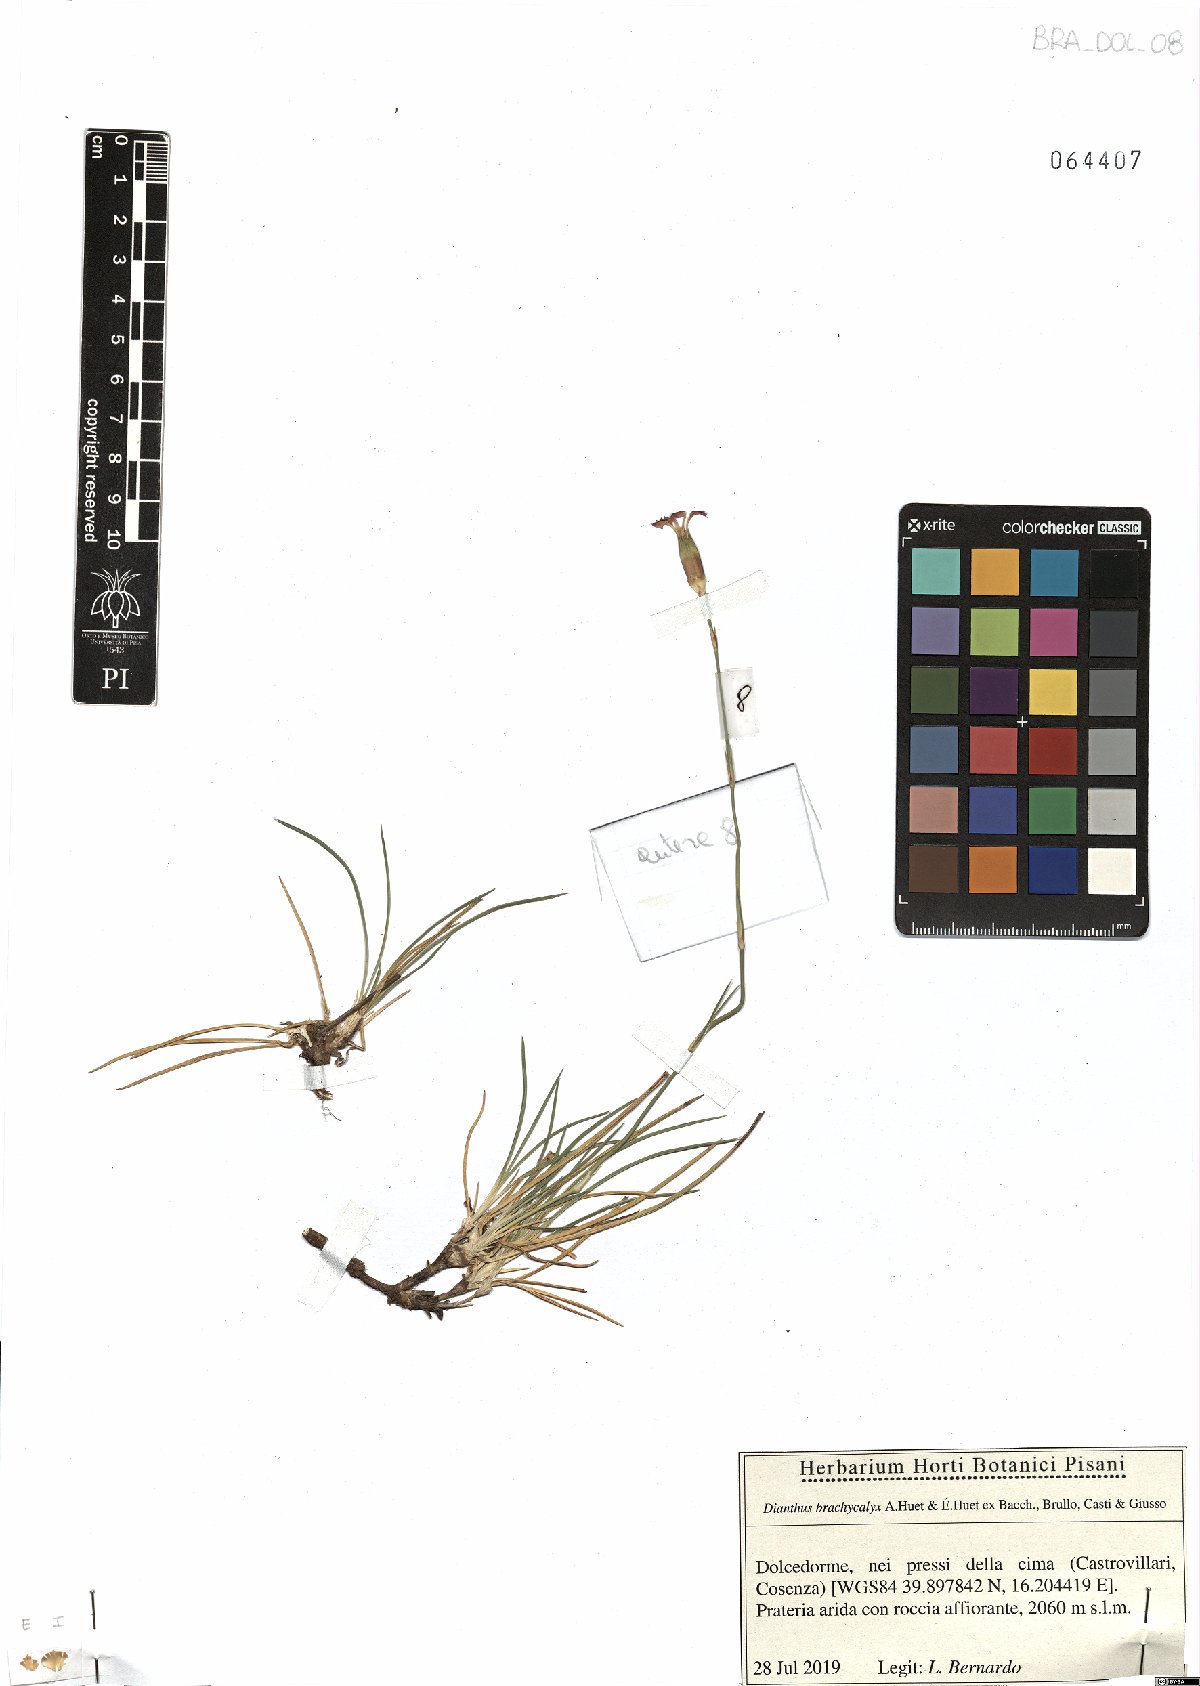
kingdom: Plantae
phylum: Tracheophyta
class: Magnoliopsida
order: Caryophyllales
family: Caryophyllaceae
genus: Dianthus
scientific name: Dianthus brachycalyx
